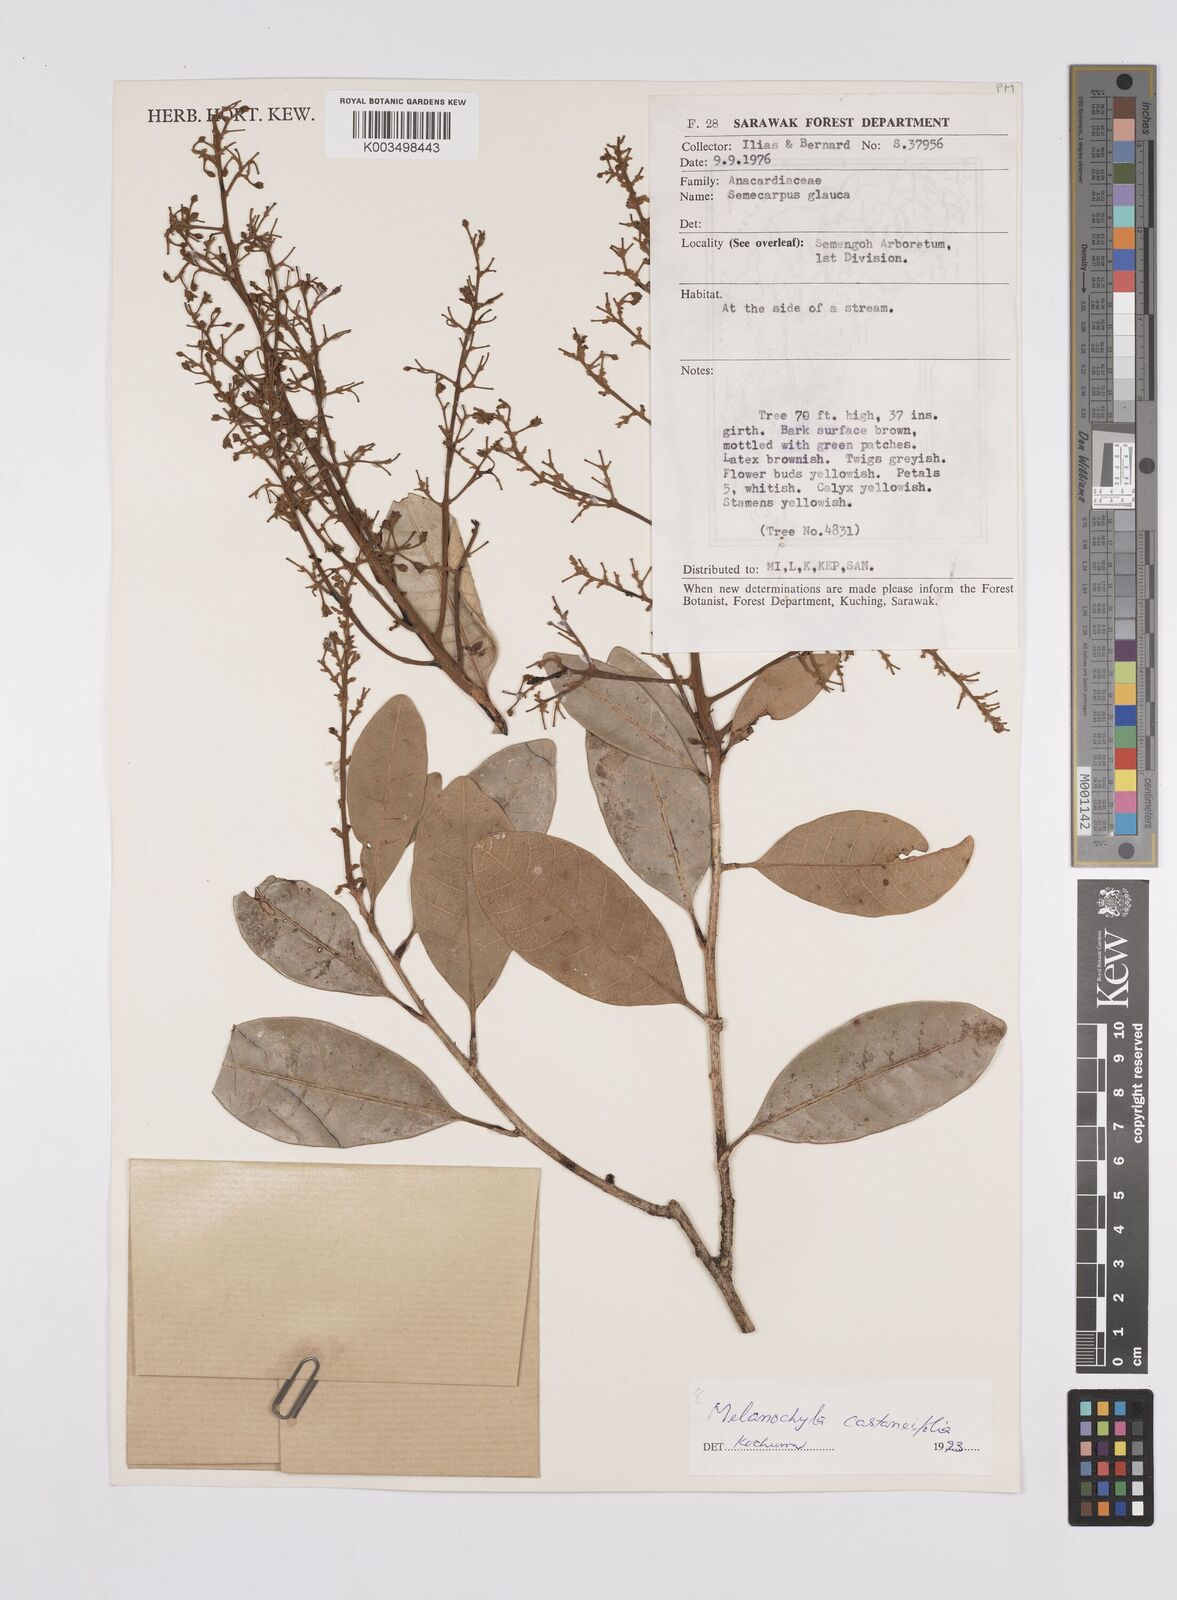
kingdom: Plantae
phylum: Tracheophyta
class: Magnoliopsida
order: Sapindales
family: Anacardiaceae
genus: Melanochyla
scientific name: Melanochyla castaneifolia
